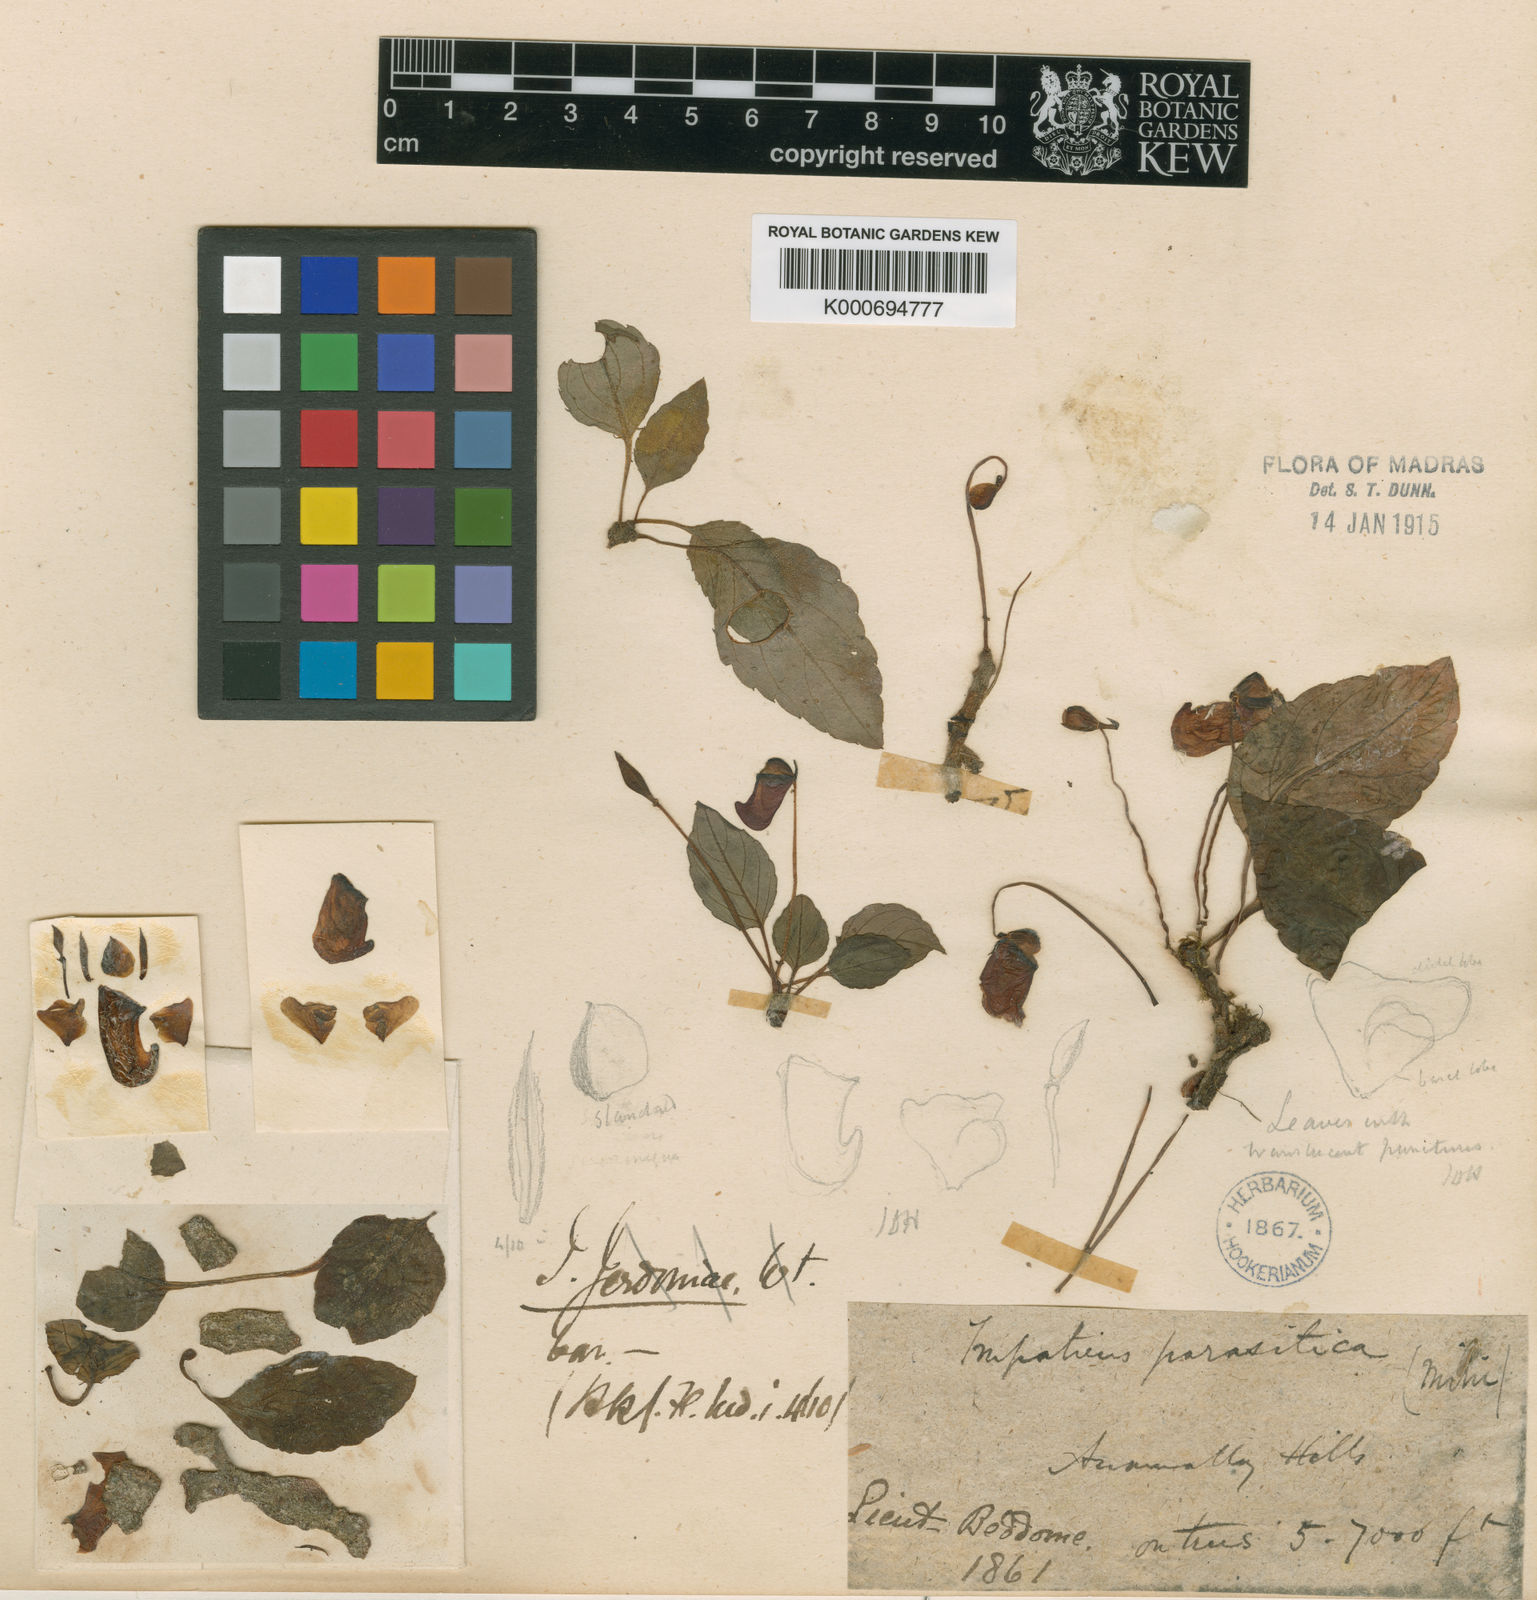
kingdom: Plantae
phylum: Tracheophyta
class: Magnoliopsida
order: Ericales
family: Balsaminaceae
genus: Impatiens
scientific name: Impatiens parasitica
